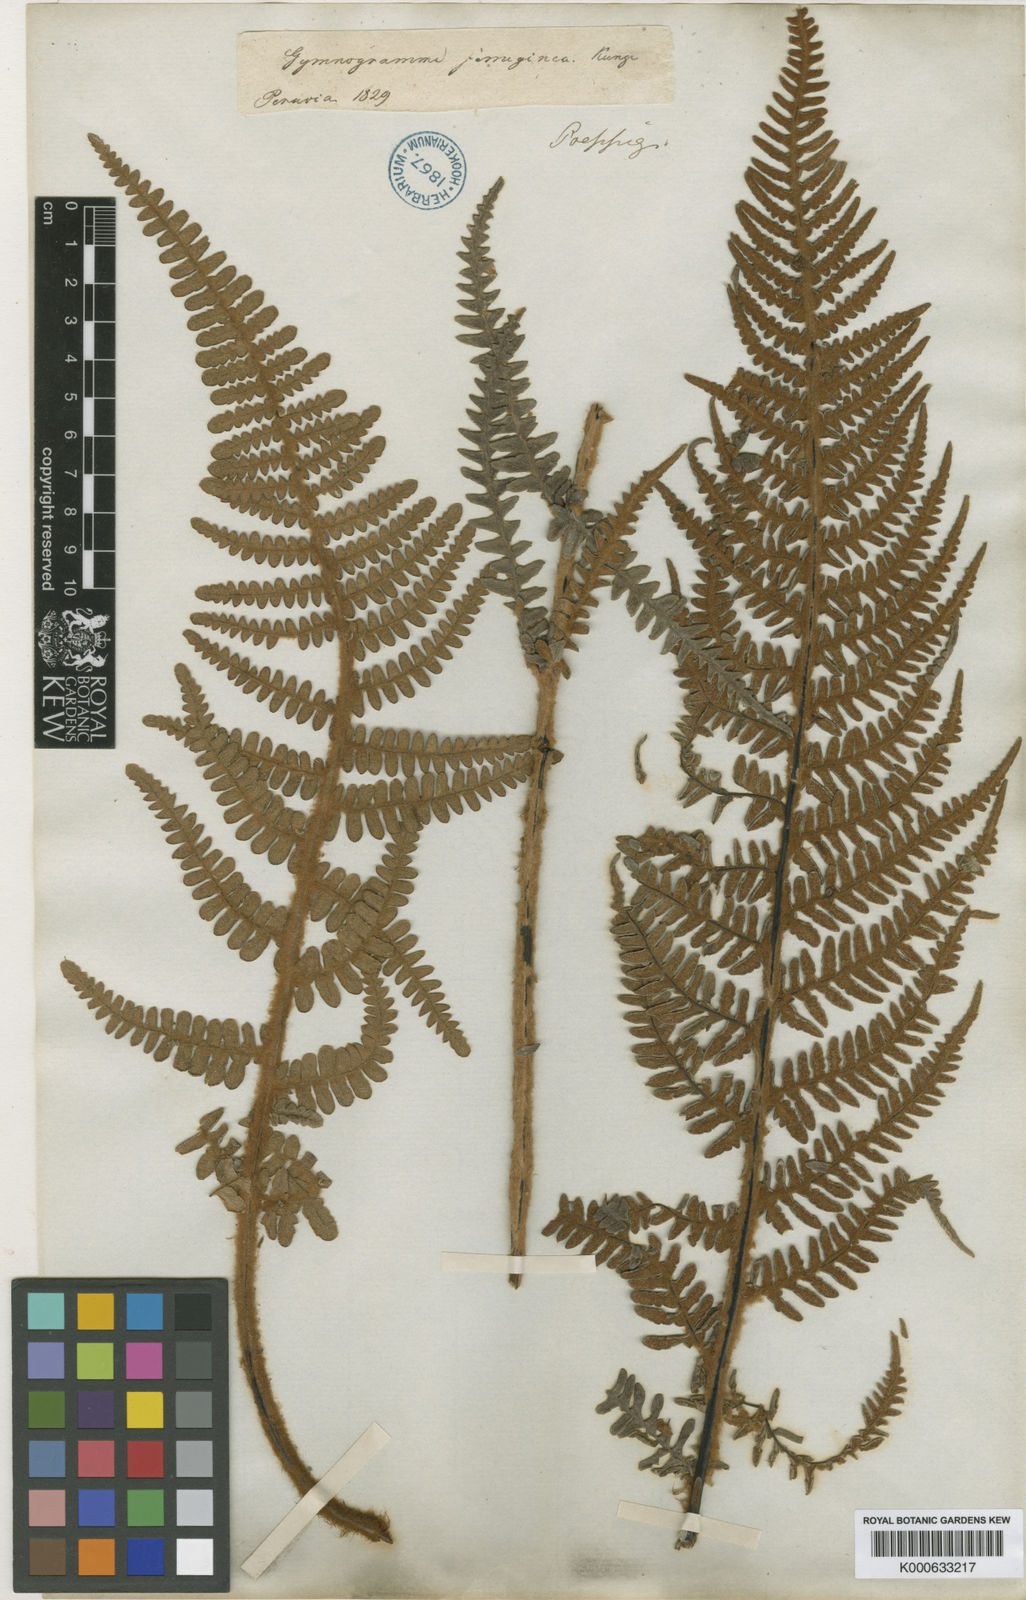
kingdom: Plantae
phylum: Tracheophyta
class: Polypodiopsida
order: Polypodiales
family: Pteridaceae
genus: Pityrogramma
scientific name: Pityrogramma ferruginea
